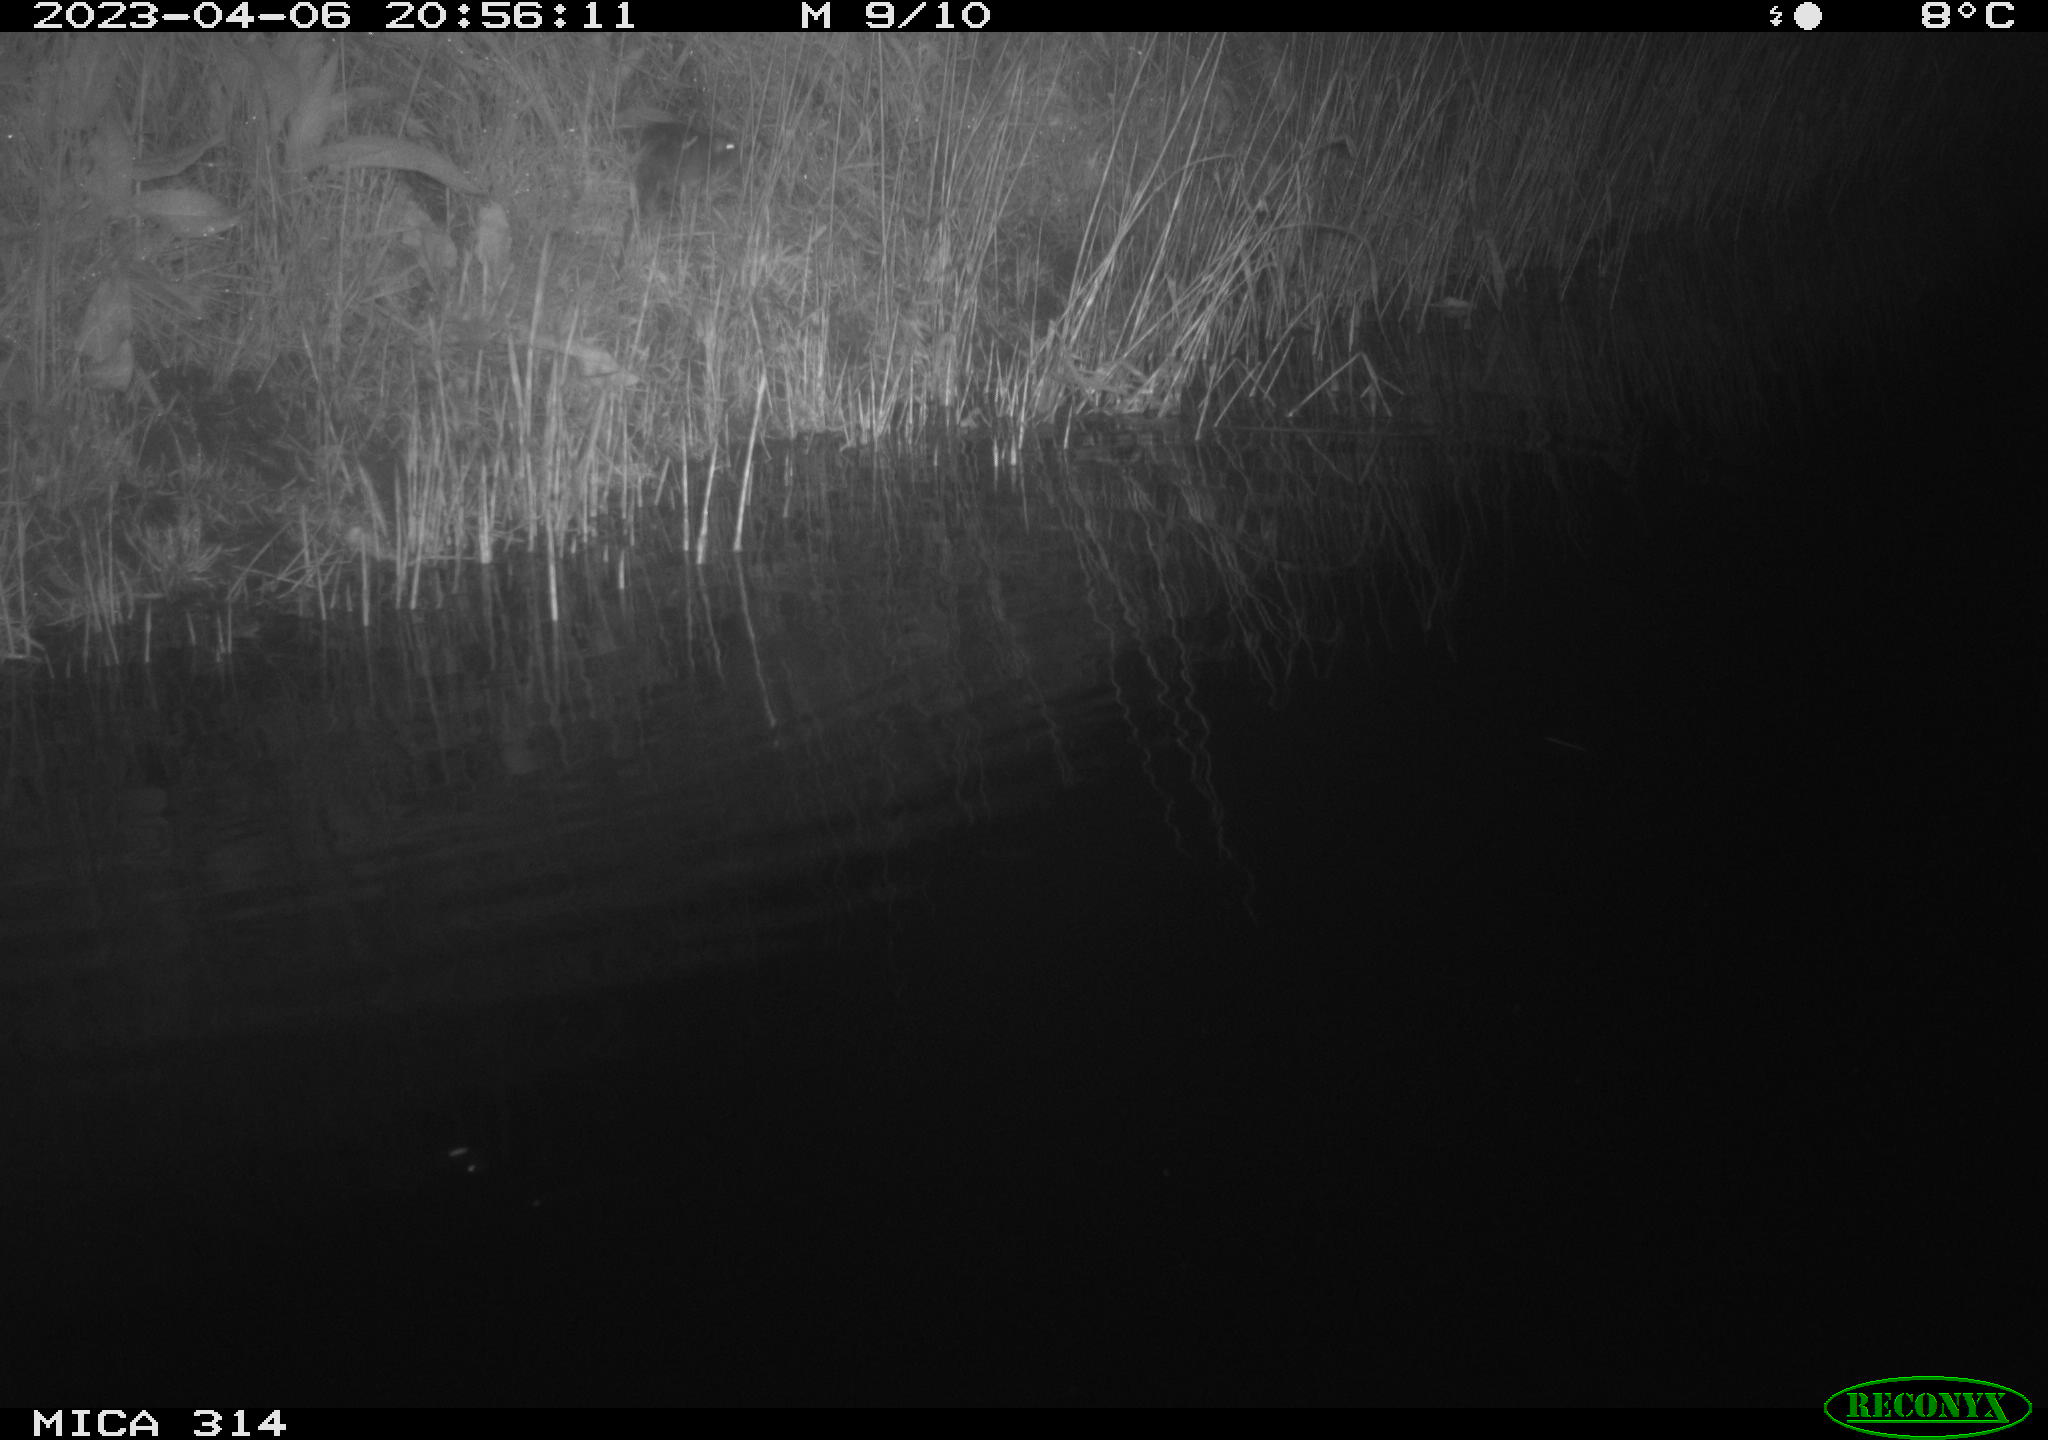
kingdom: Animalia
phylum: Chordata
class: Mammalia
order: Rodentia
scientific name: Rodentia
